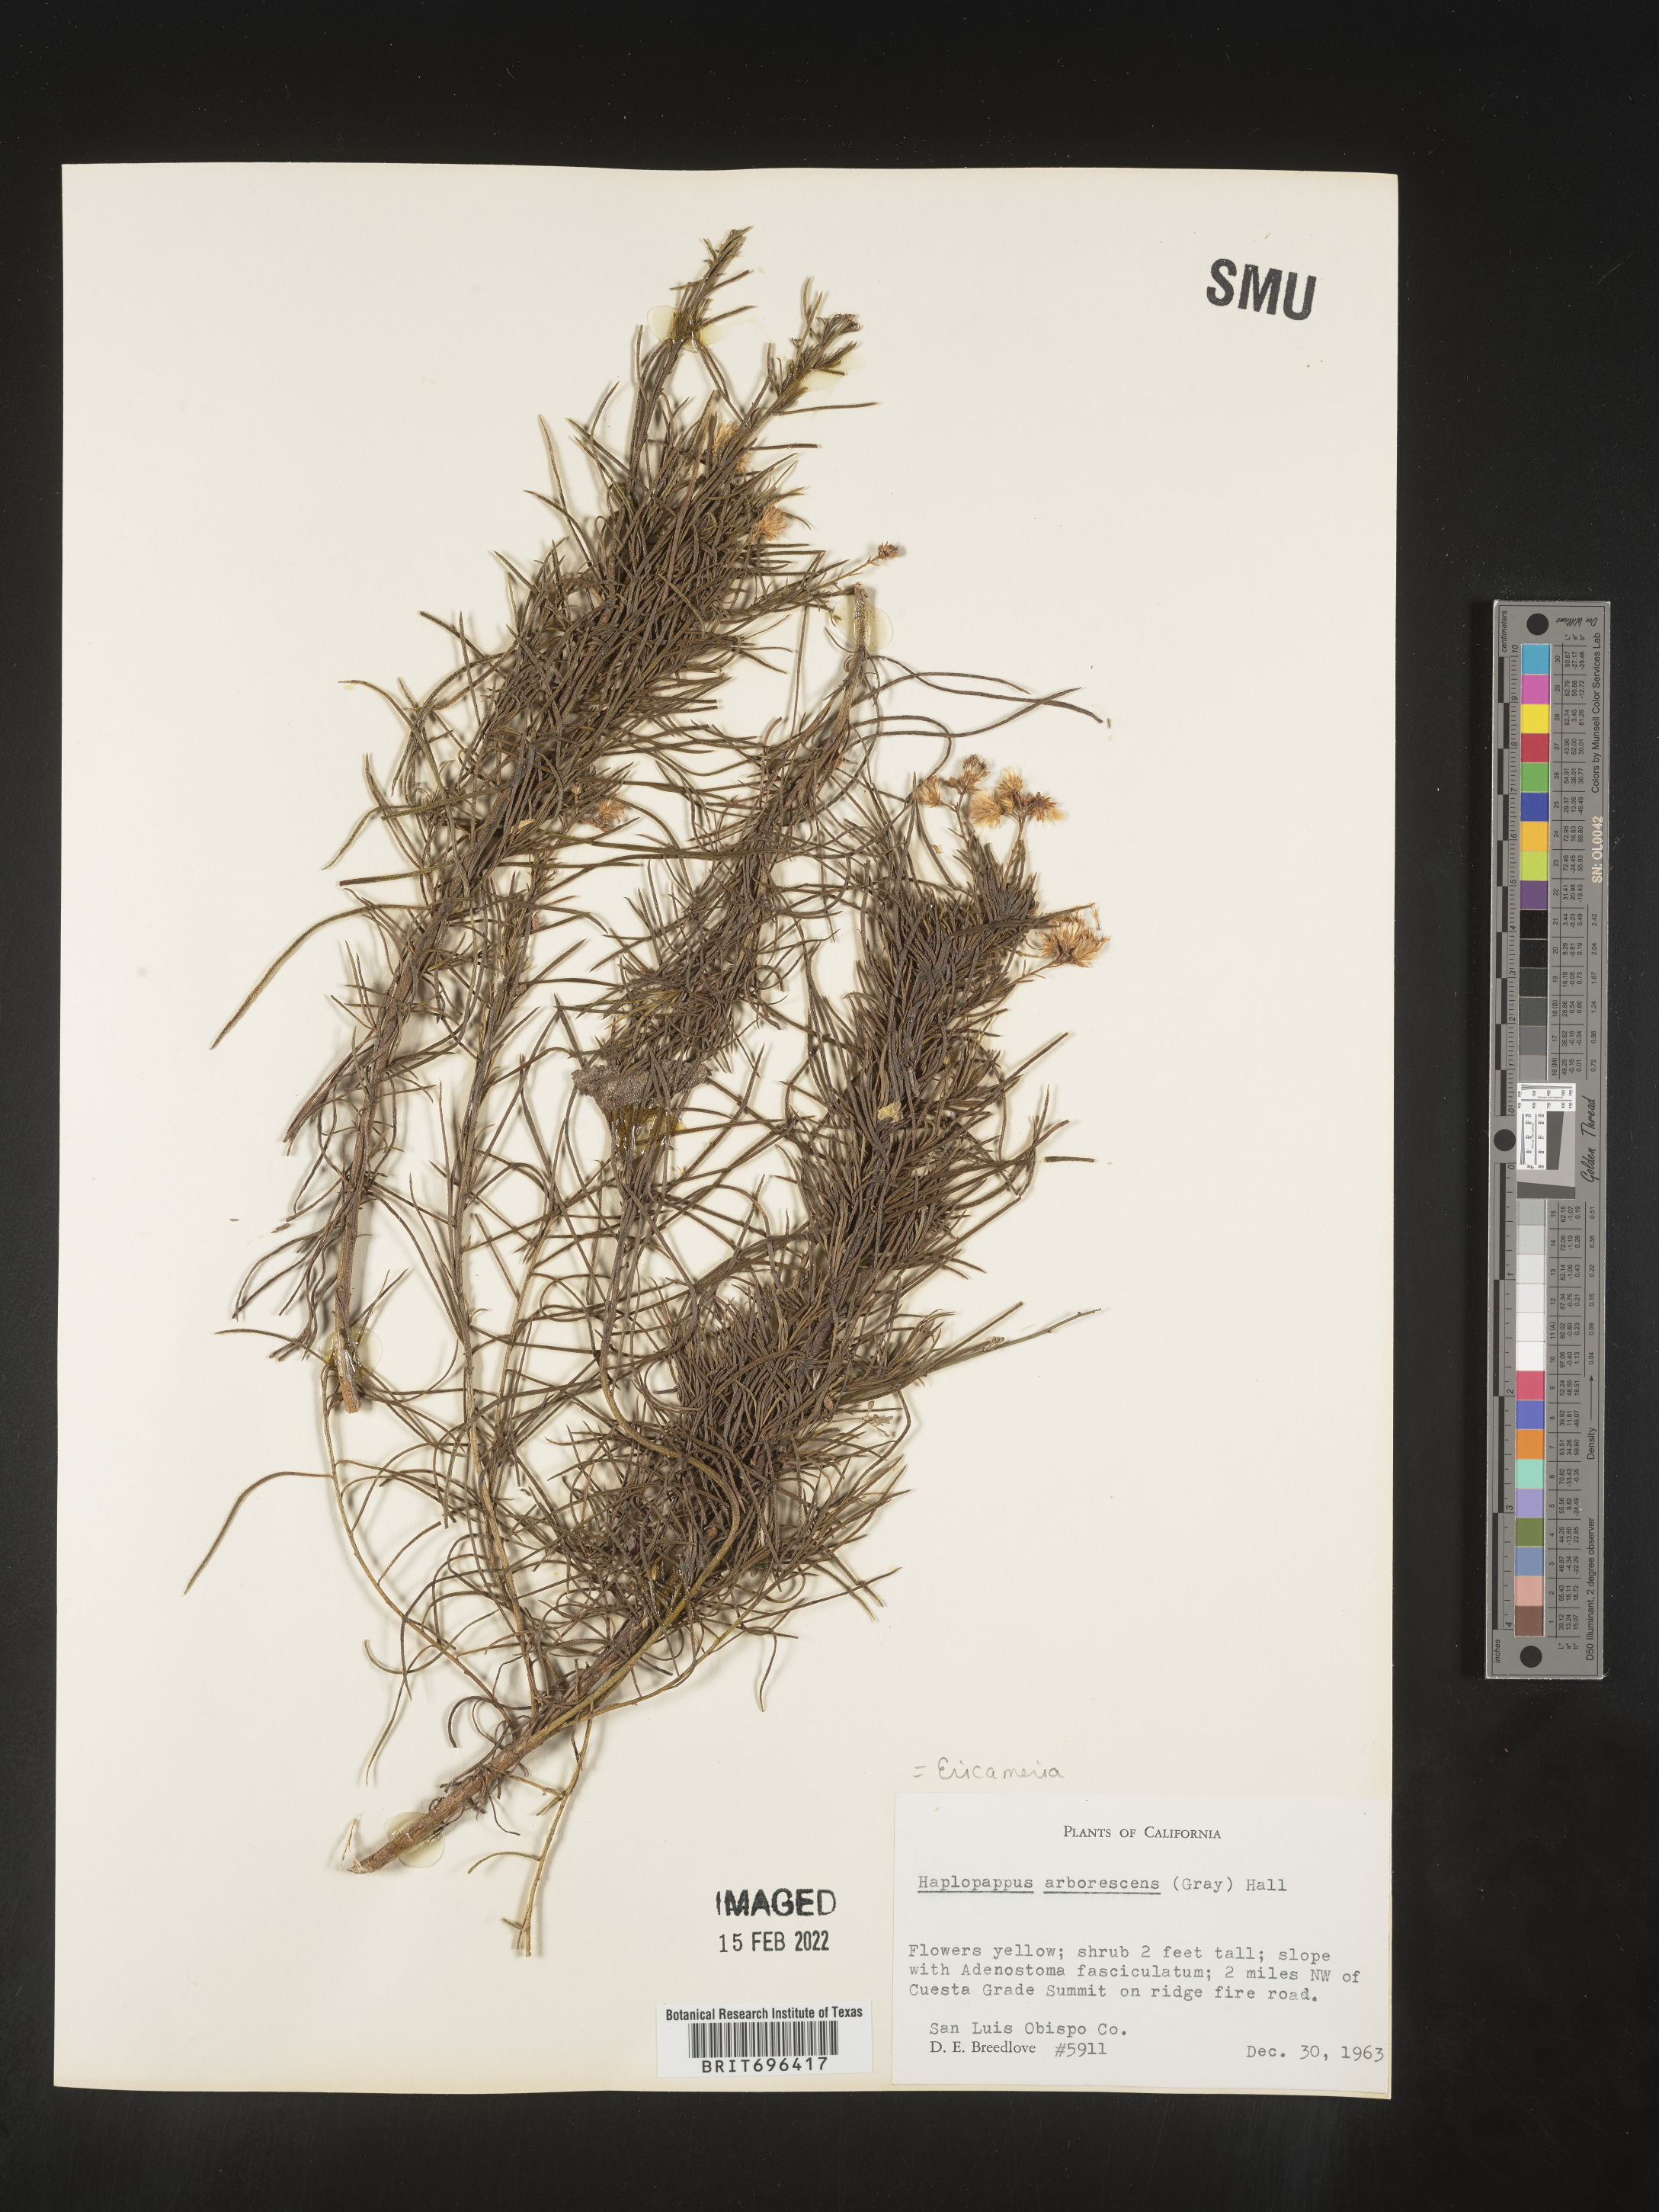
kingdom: Plantae
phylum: Tracheophyta
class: Magnoliopsida
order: Asterales
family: Asteraceae
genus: Ericameria
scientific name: Ericameria arborescens
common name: Goldenfleece
